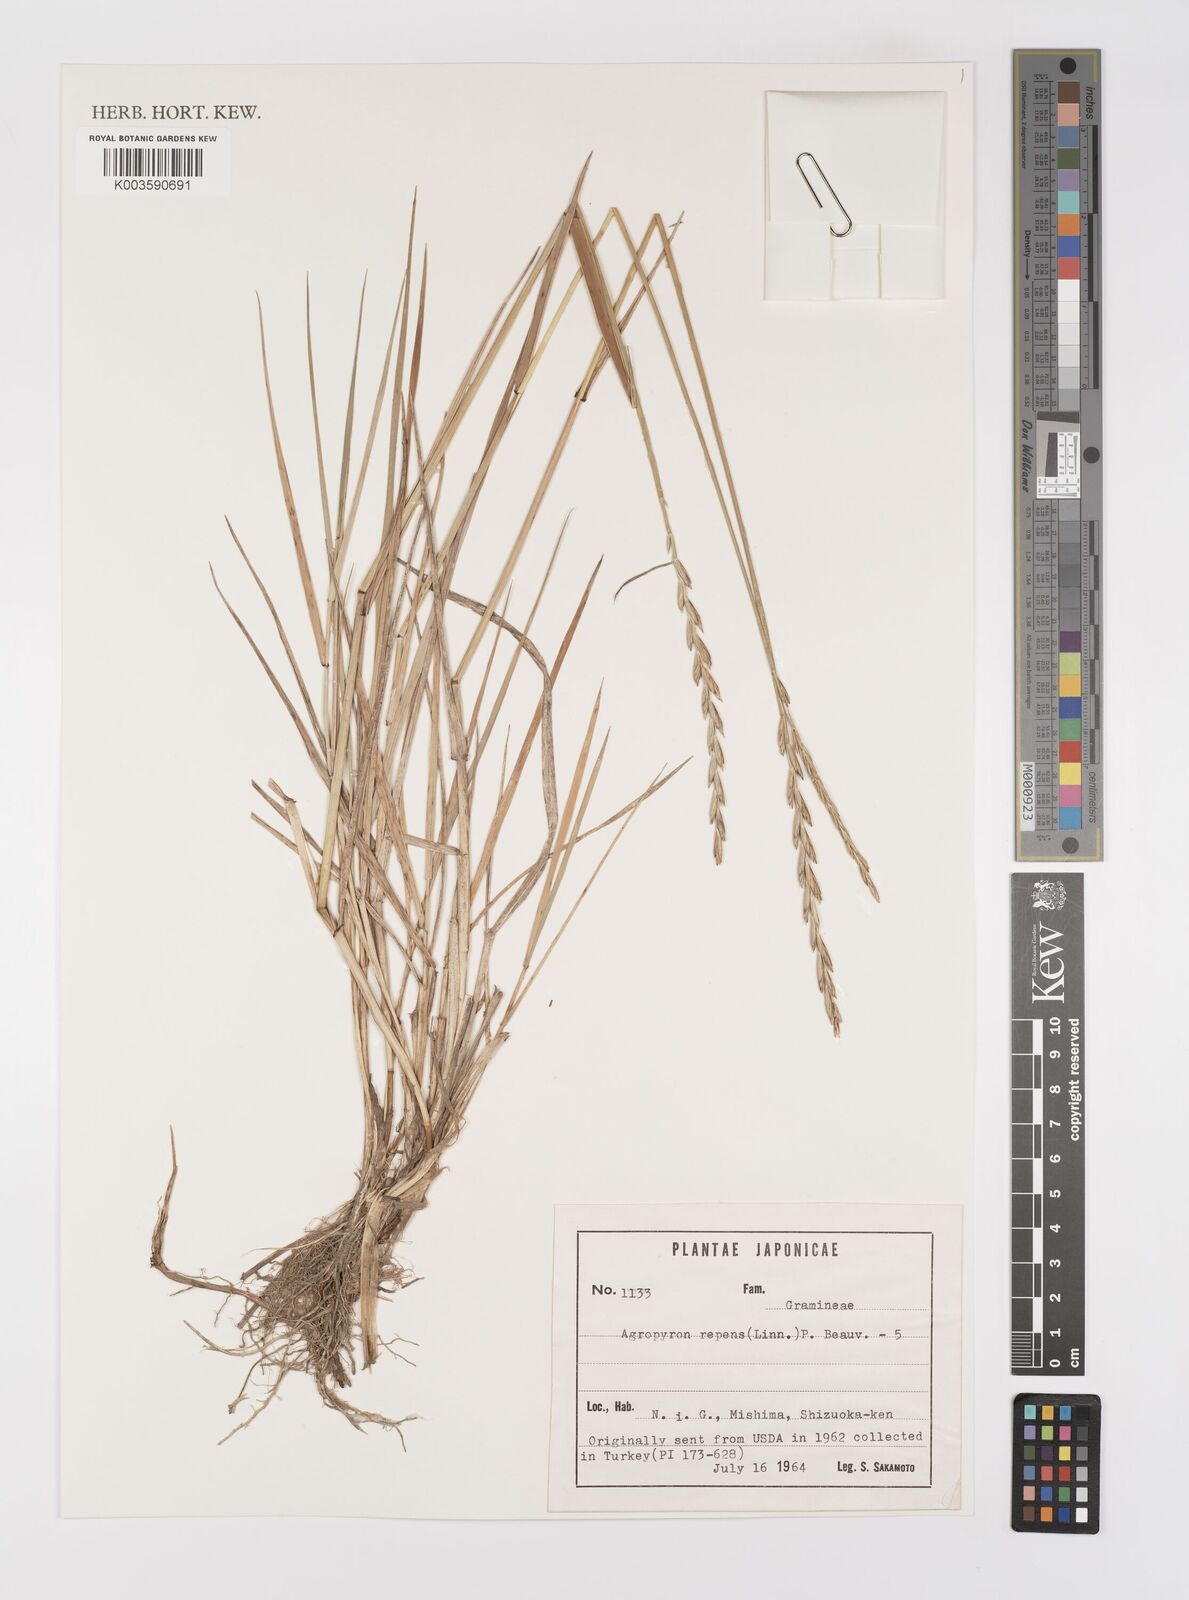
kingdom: Plantae
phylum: Tracheophyta
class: Liliopsida
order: Poales
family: Poaceae
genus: Elymus
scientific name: Elymus repens
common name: Quackgrass
